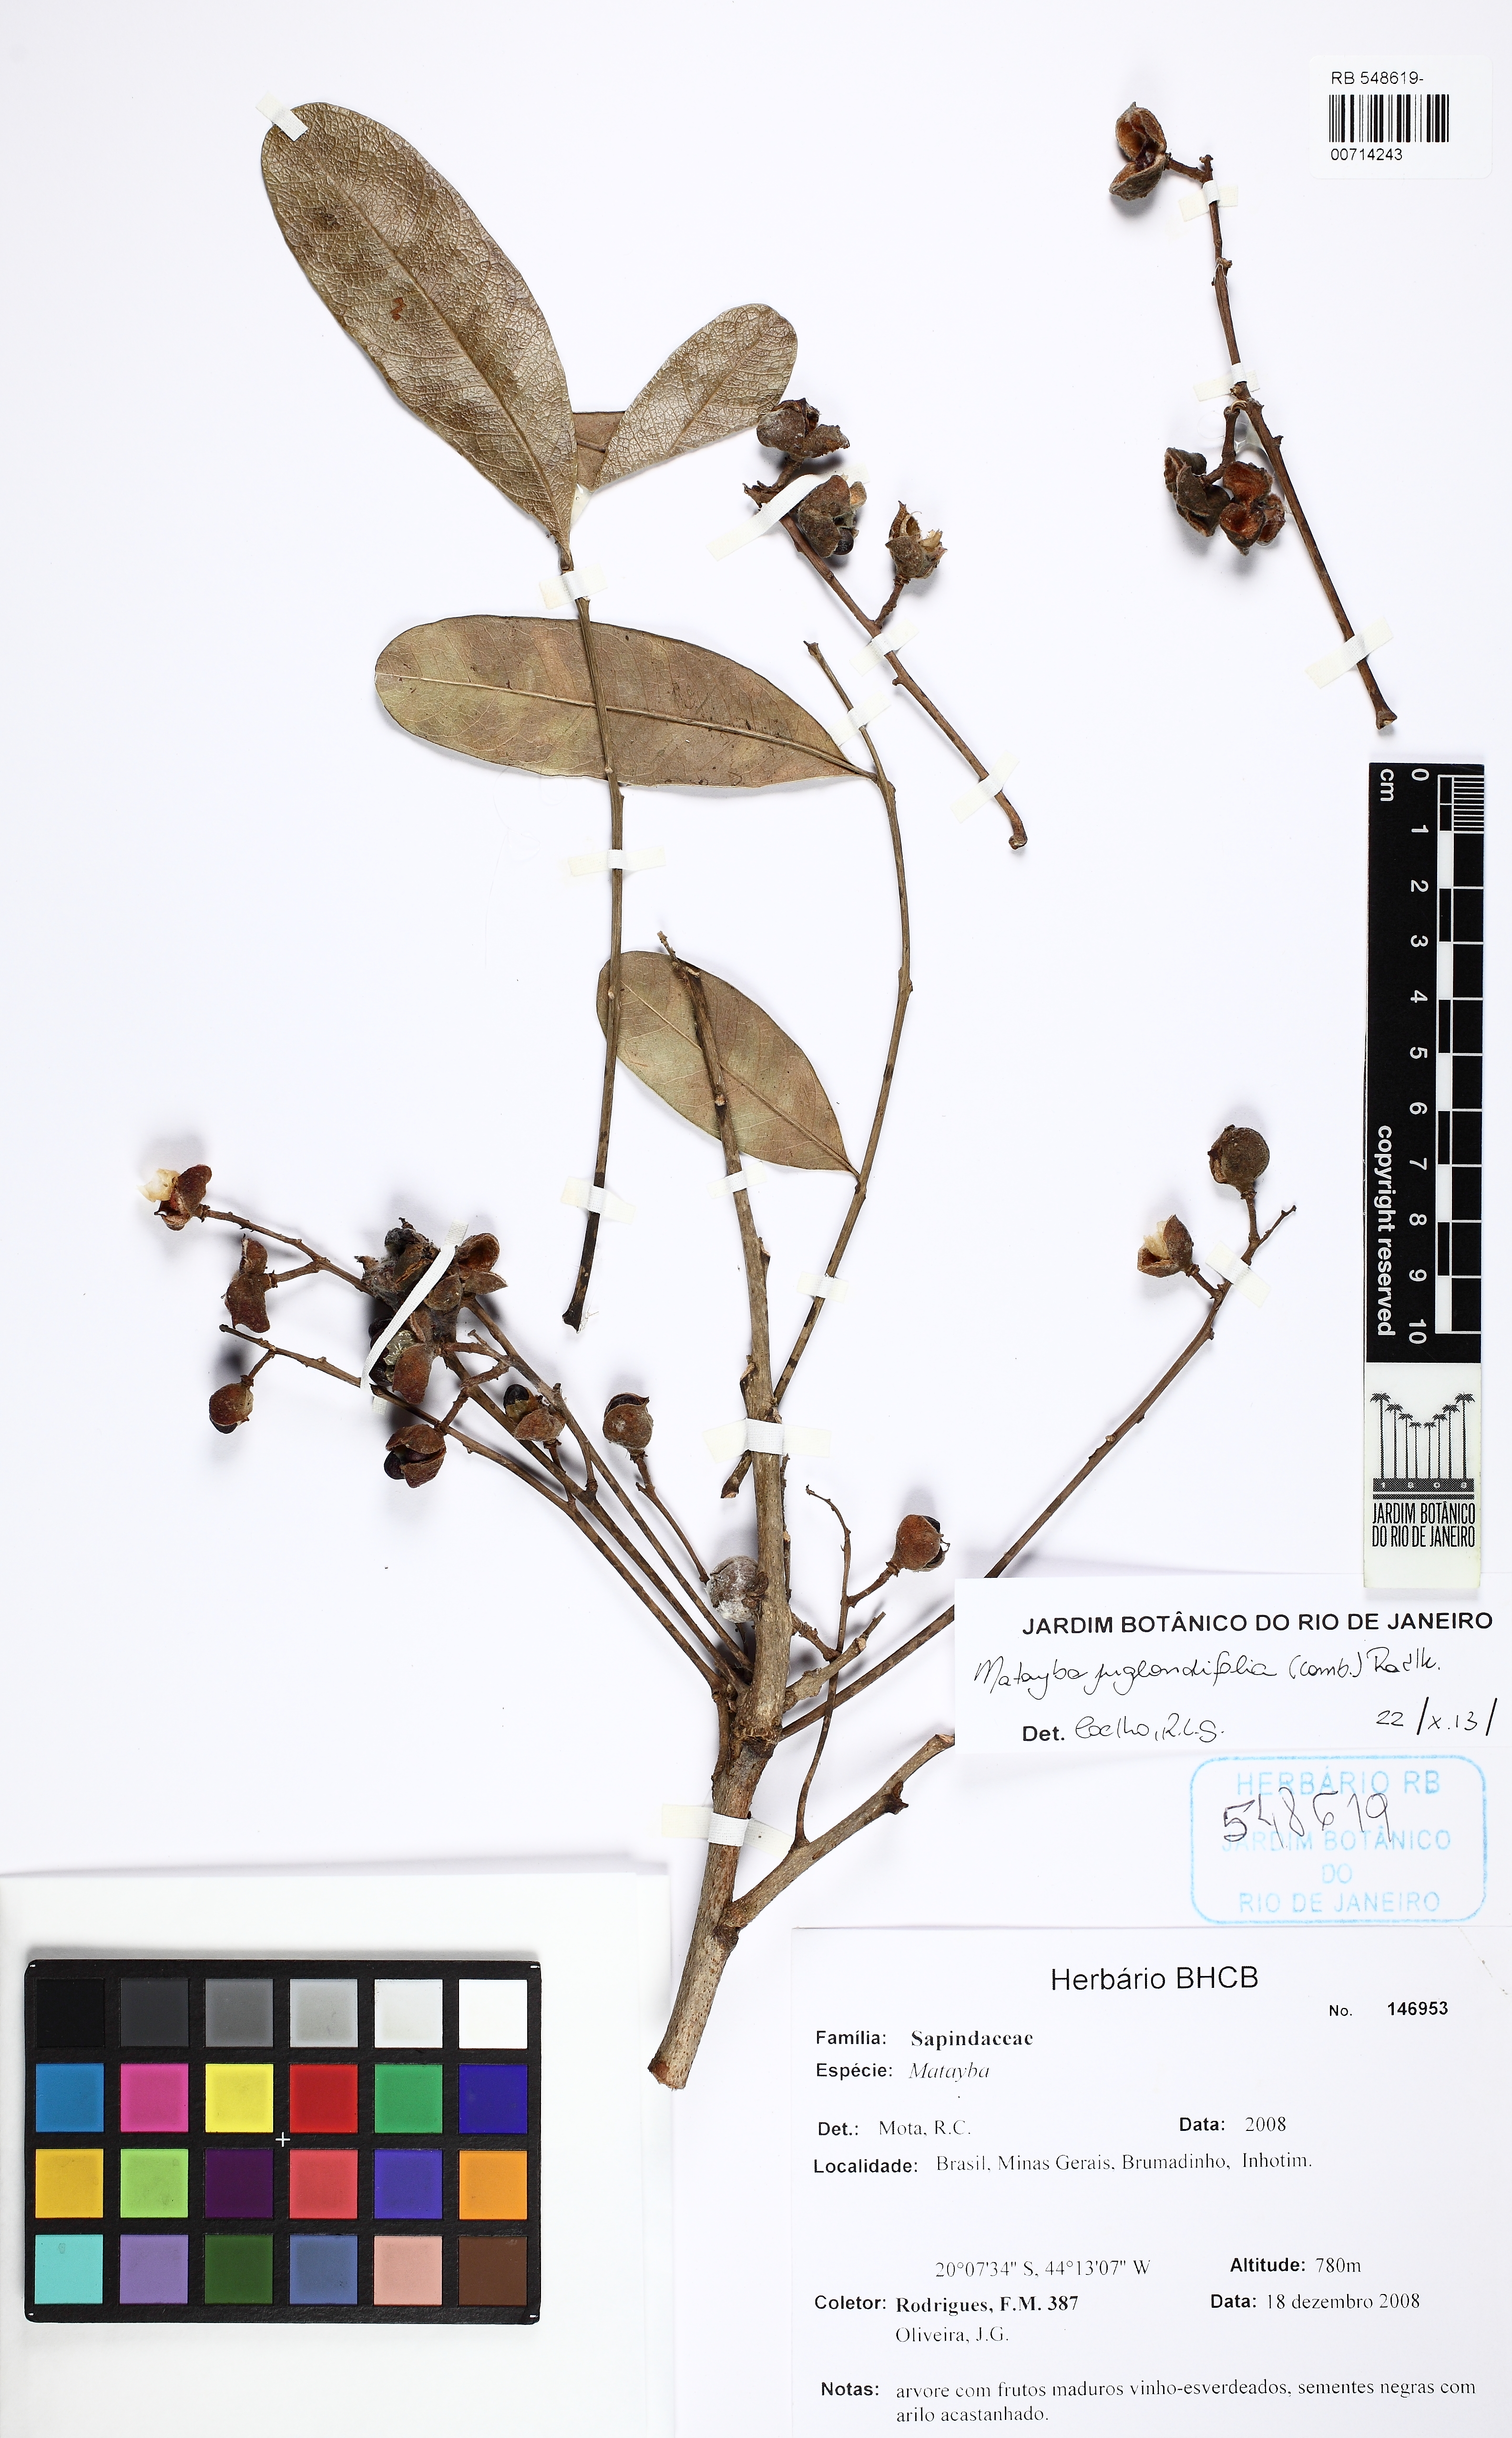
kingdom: Plantae
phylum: Tracheophyta
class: Magnoliopsida
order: Sapindales
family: Sapindaceae
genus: Matayba
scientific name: Matayba juglandifolia
